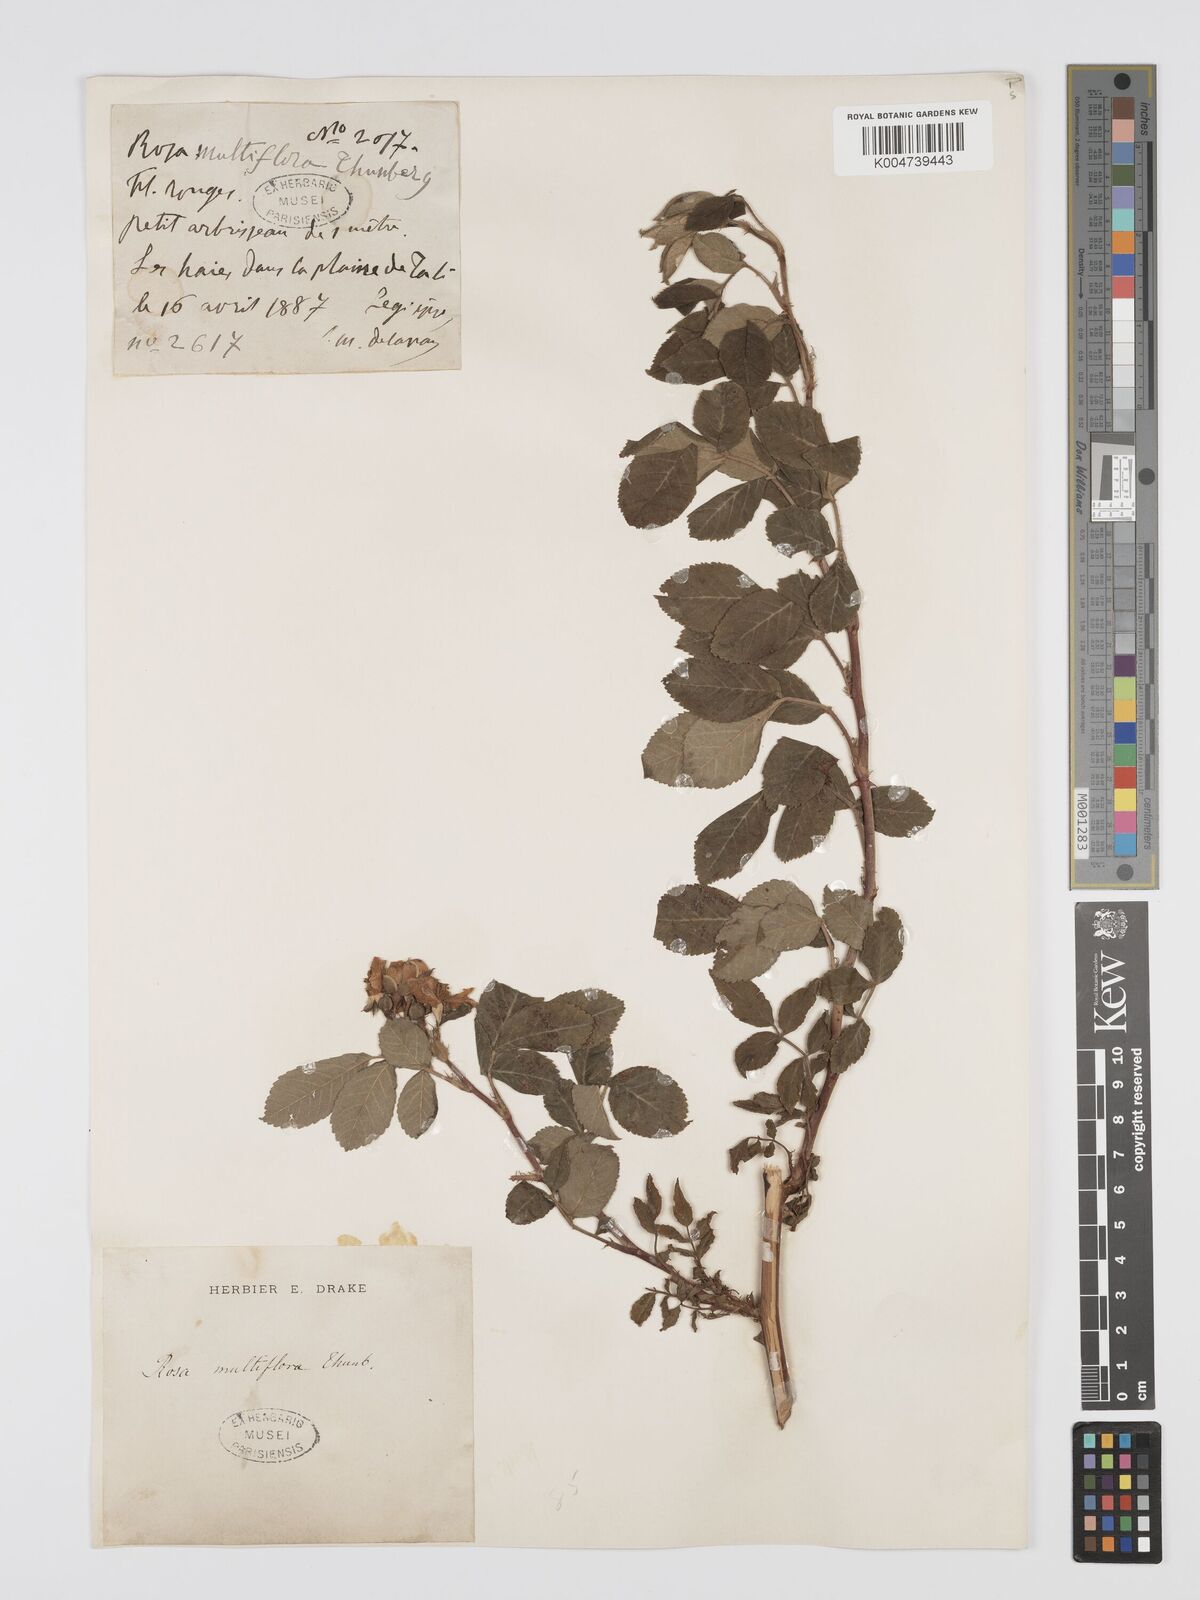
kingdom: Plantae
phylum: Tracheophyta
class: Magnoliopsida
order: Rosales
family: Rosaceae
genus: Rosa
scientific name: Rosa
